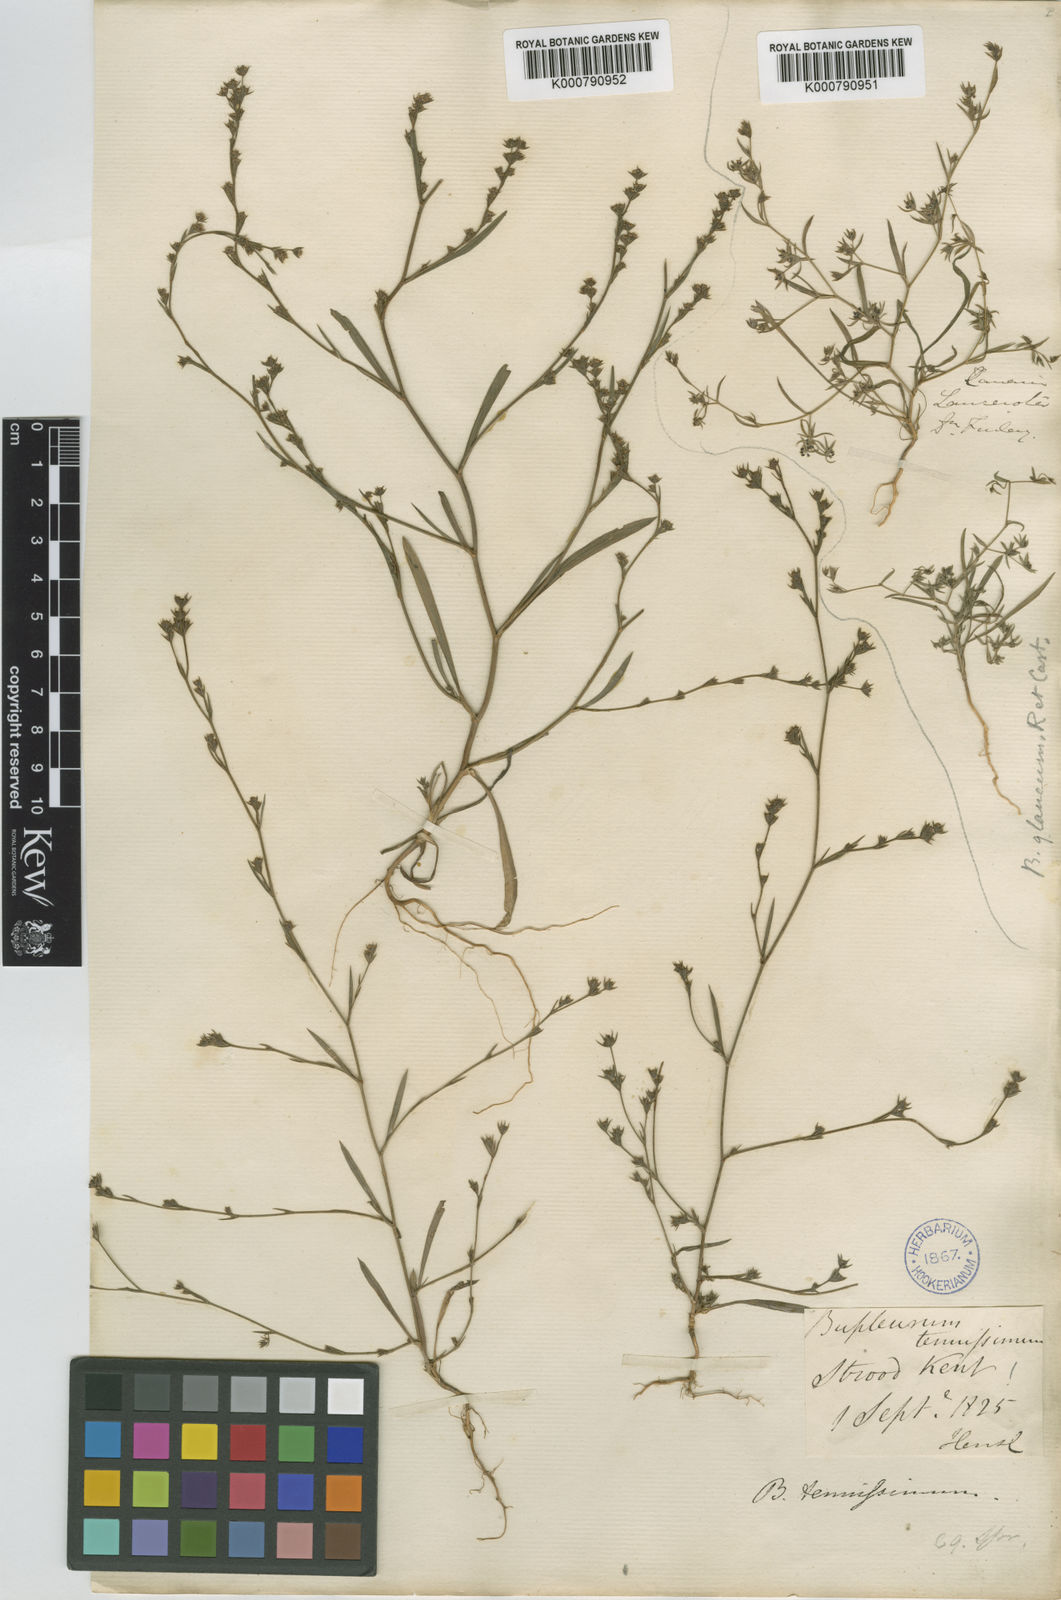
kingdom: Plantae
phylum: Tracheophyta
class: Magnoliopsida
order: Apiales
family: Apiaceae
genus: Bupleurum
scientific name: Bupleurum
